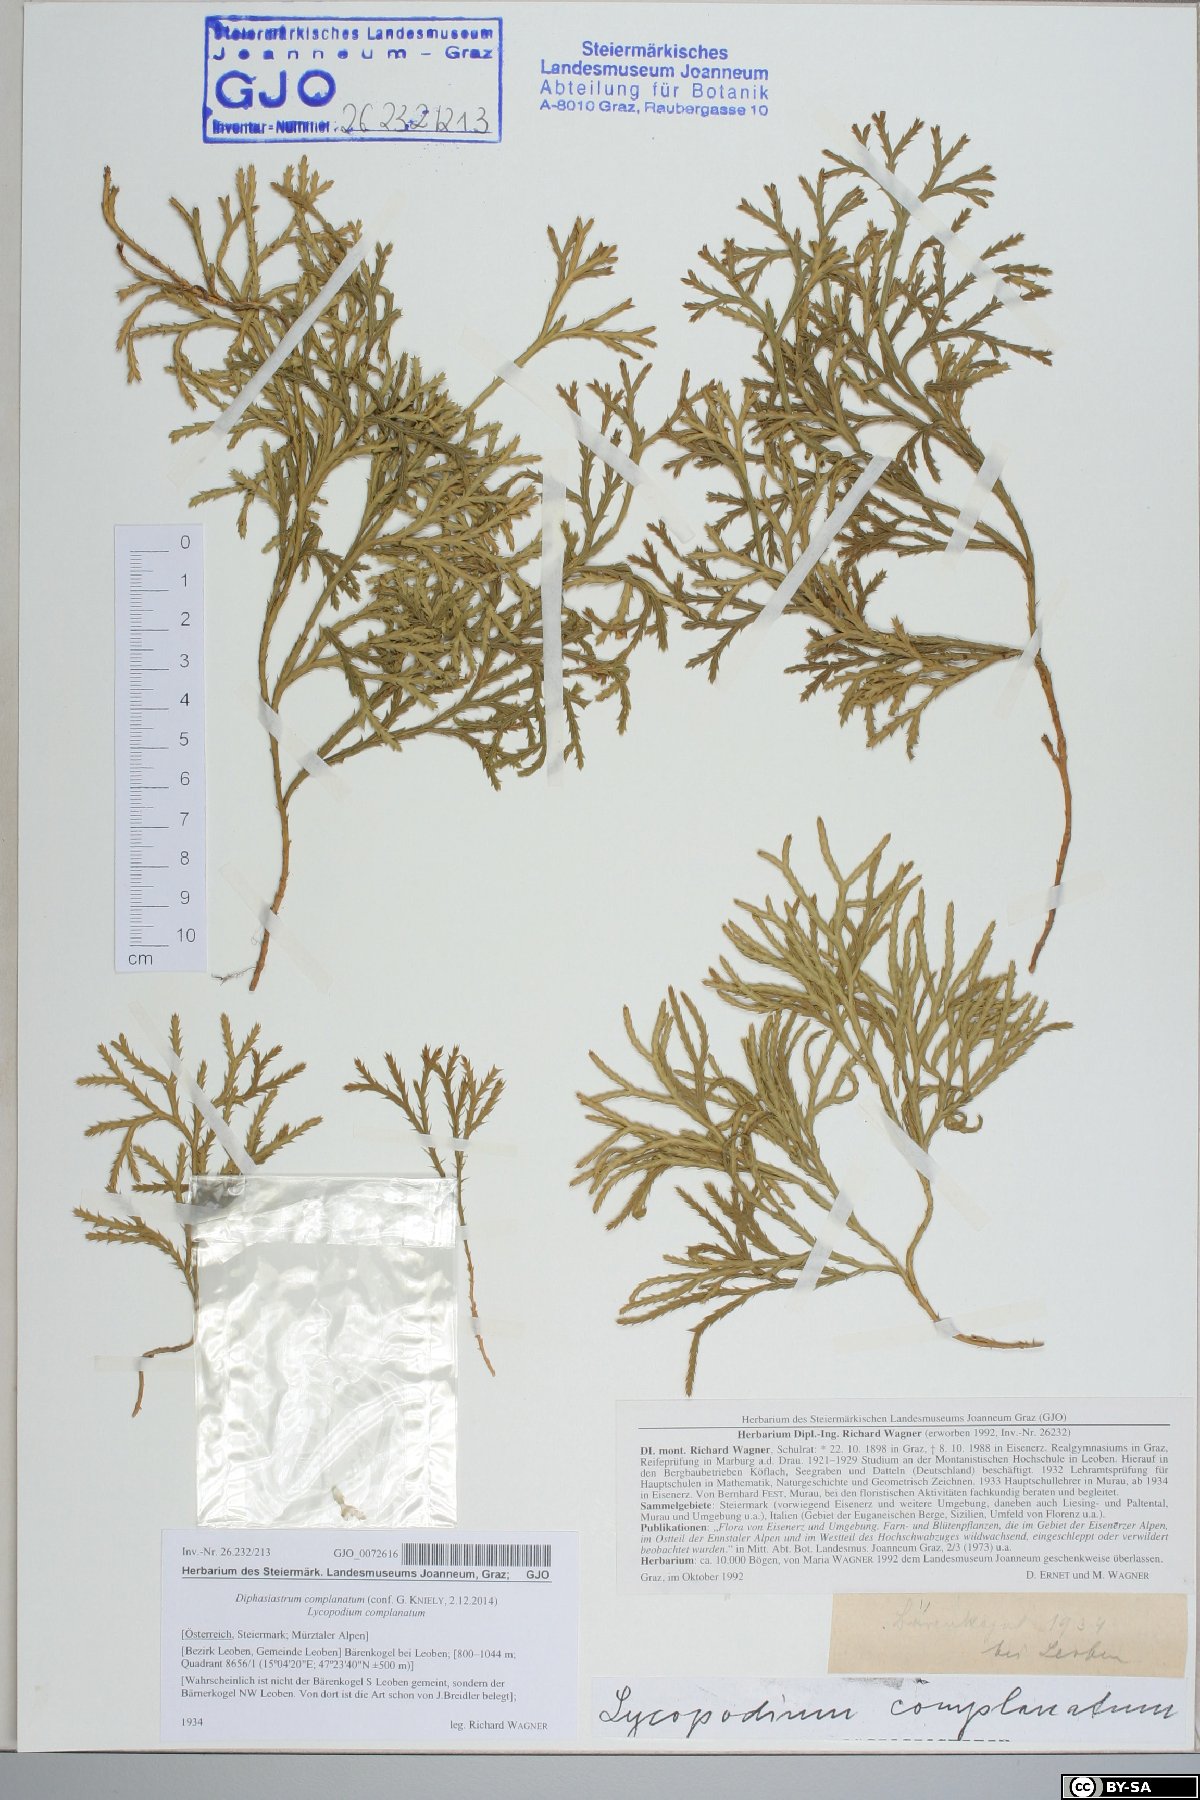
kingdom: Plantae
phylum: Tracheophyta
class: Lycopodiopsida
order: Lycopodiales
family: Lycopodiaceae
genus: Diphasiastrum
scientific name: Diphasiastrum complanatum
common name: Northern running-pine
